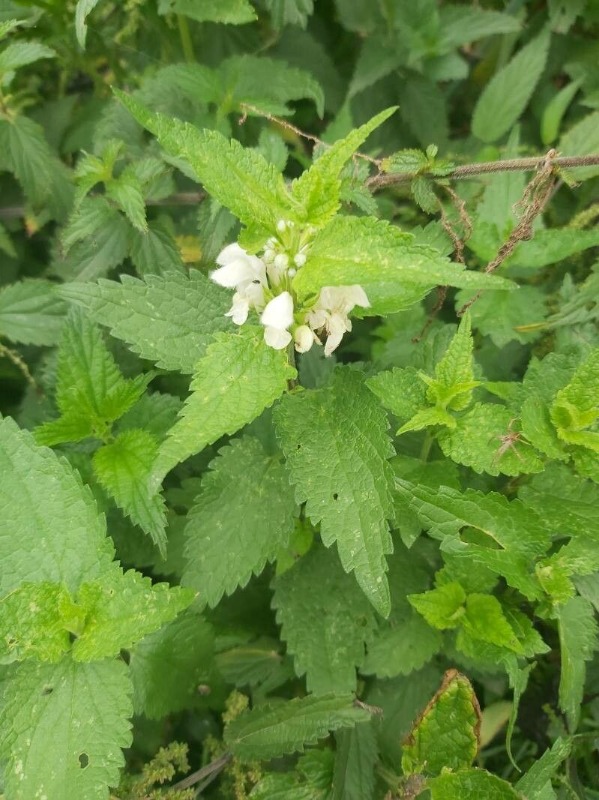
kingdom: Plantae
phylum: Tracheophyta
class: Magnoliopsida
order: Lamiales
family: Lamiaceae
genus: Lamium
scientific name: Lamium album
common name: Døvnælde
